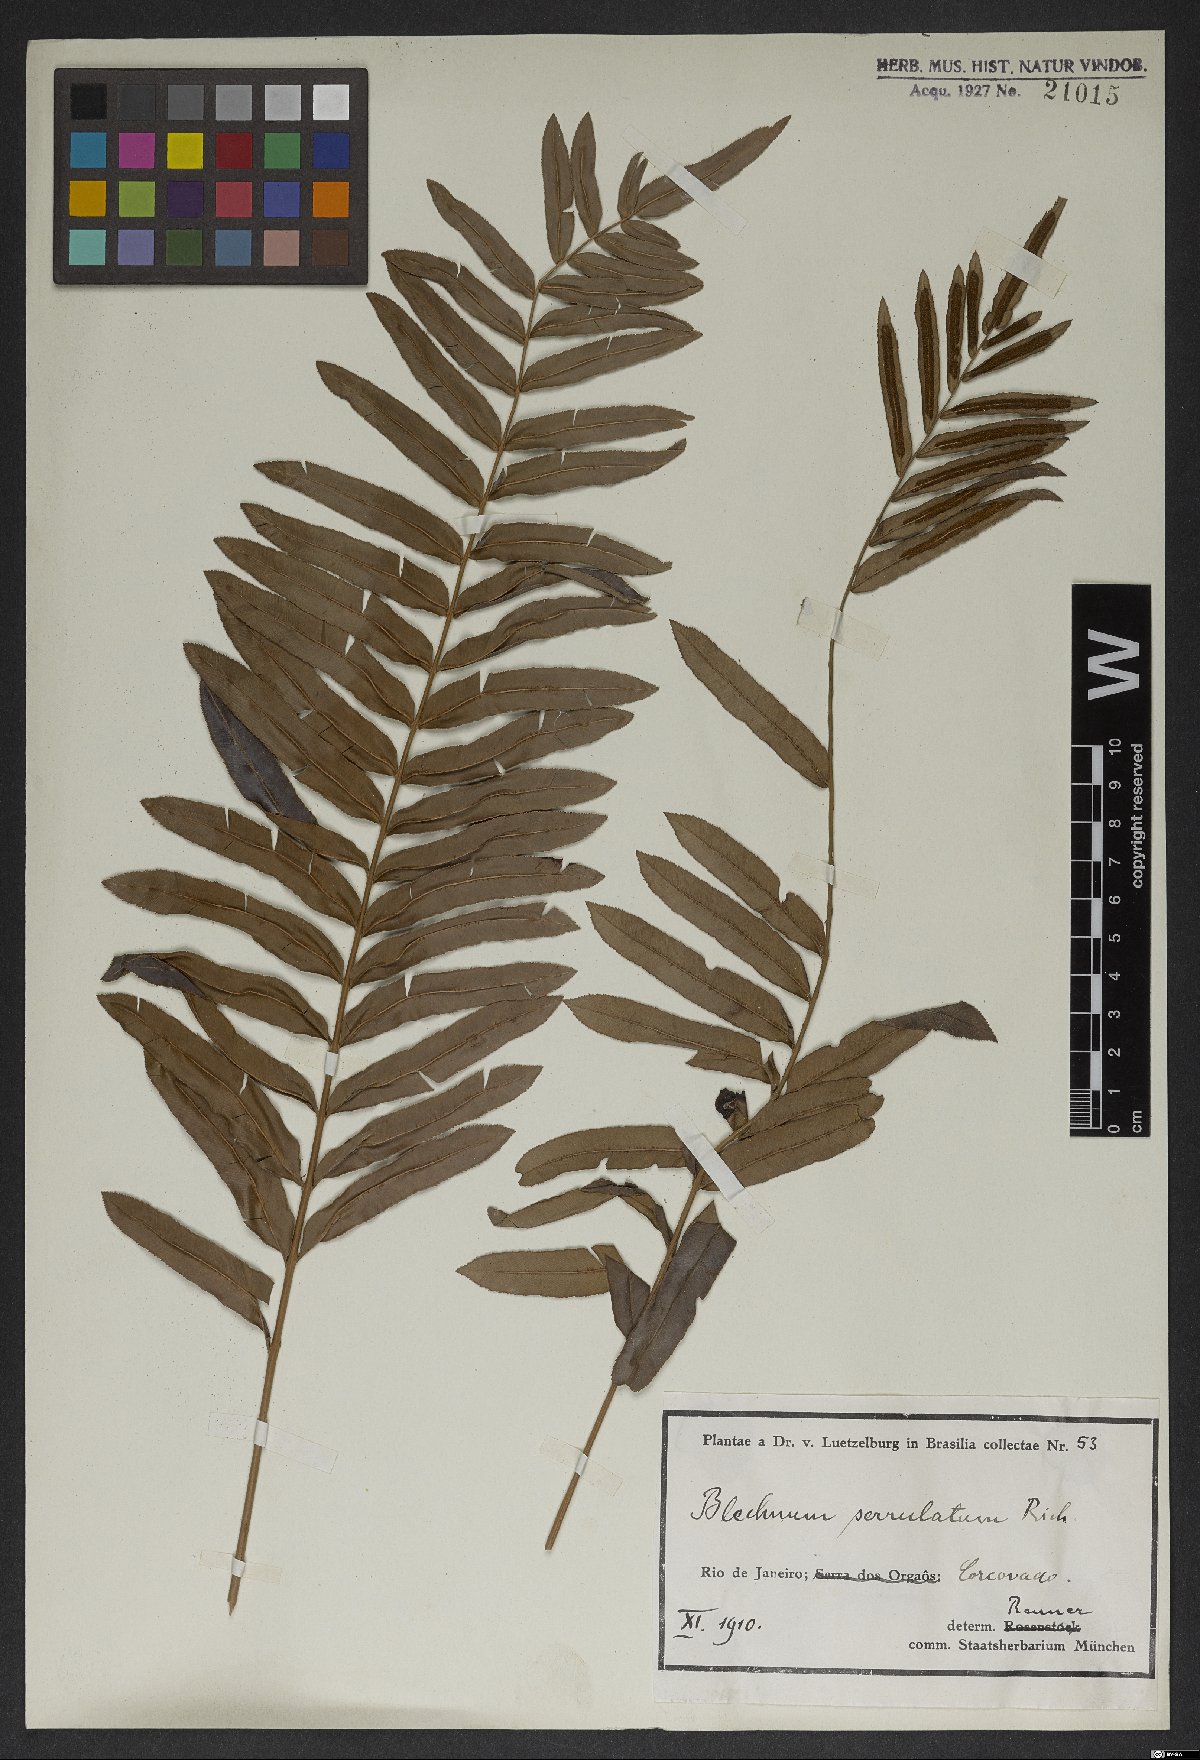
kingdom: Plantae
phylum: Tracheophyta
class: Polypodiopsida
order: Polypodiales
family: Blechnaceae
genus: Telmatoblechnum
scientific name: Telmatoblechnum serrulatum
